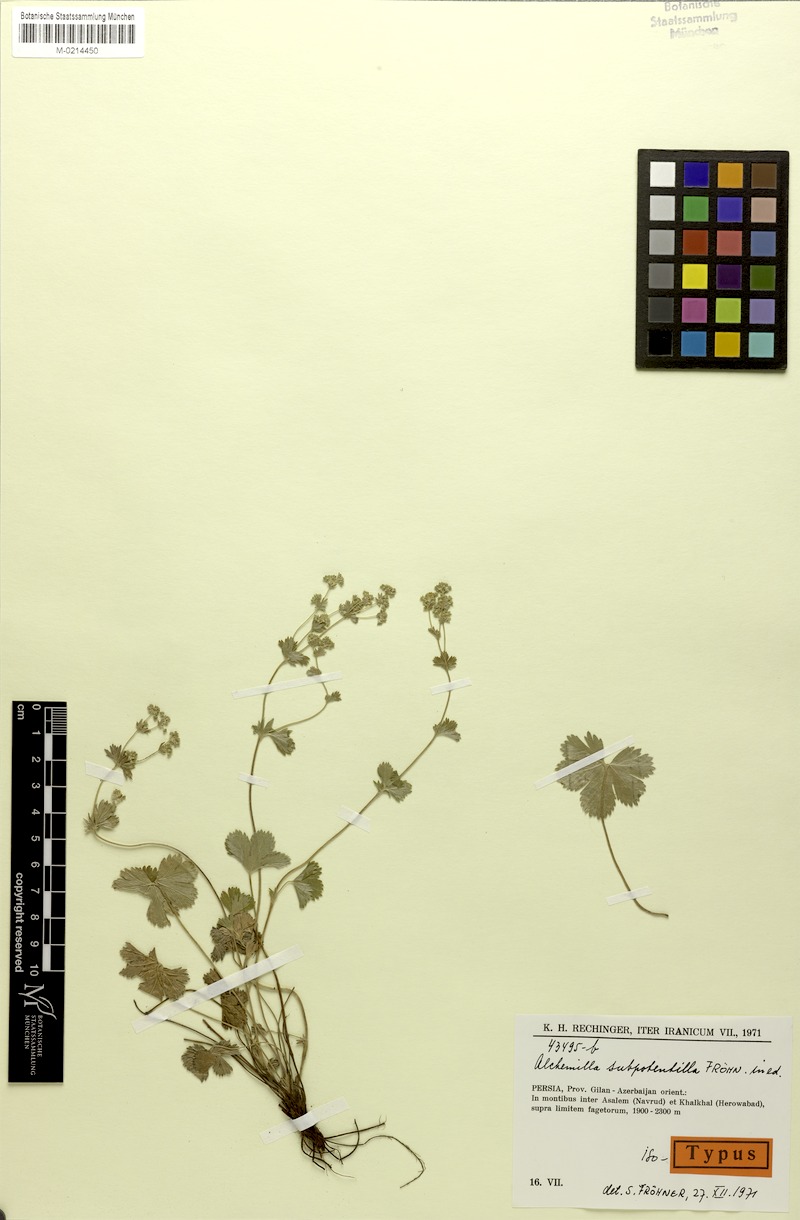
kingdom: Plantae
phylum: Tracheophyta
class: Magnoliopsida
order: Rosales
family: Rosaceae
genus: Alchemilla
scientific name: Alchemilla
